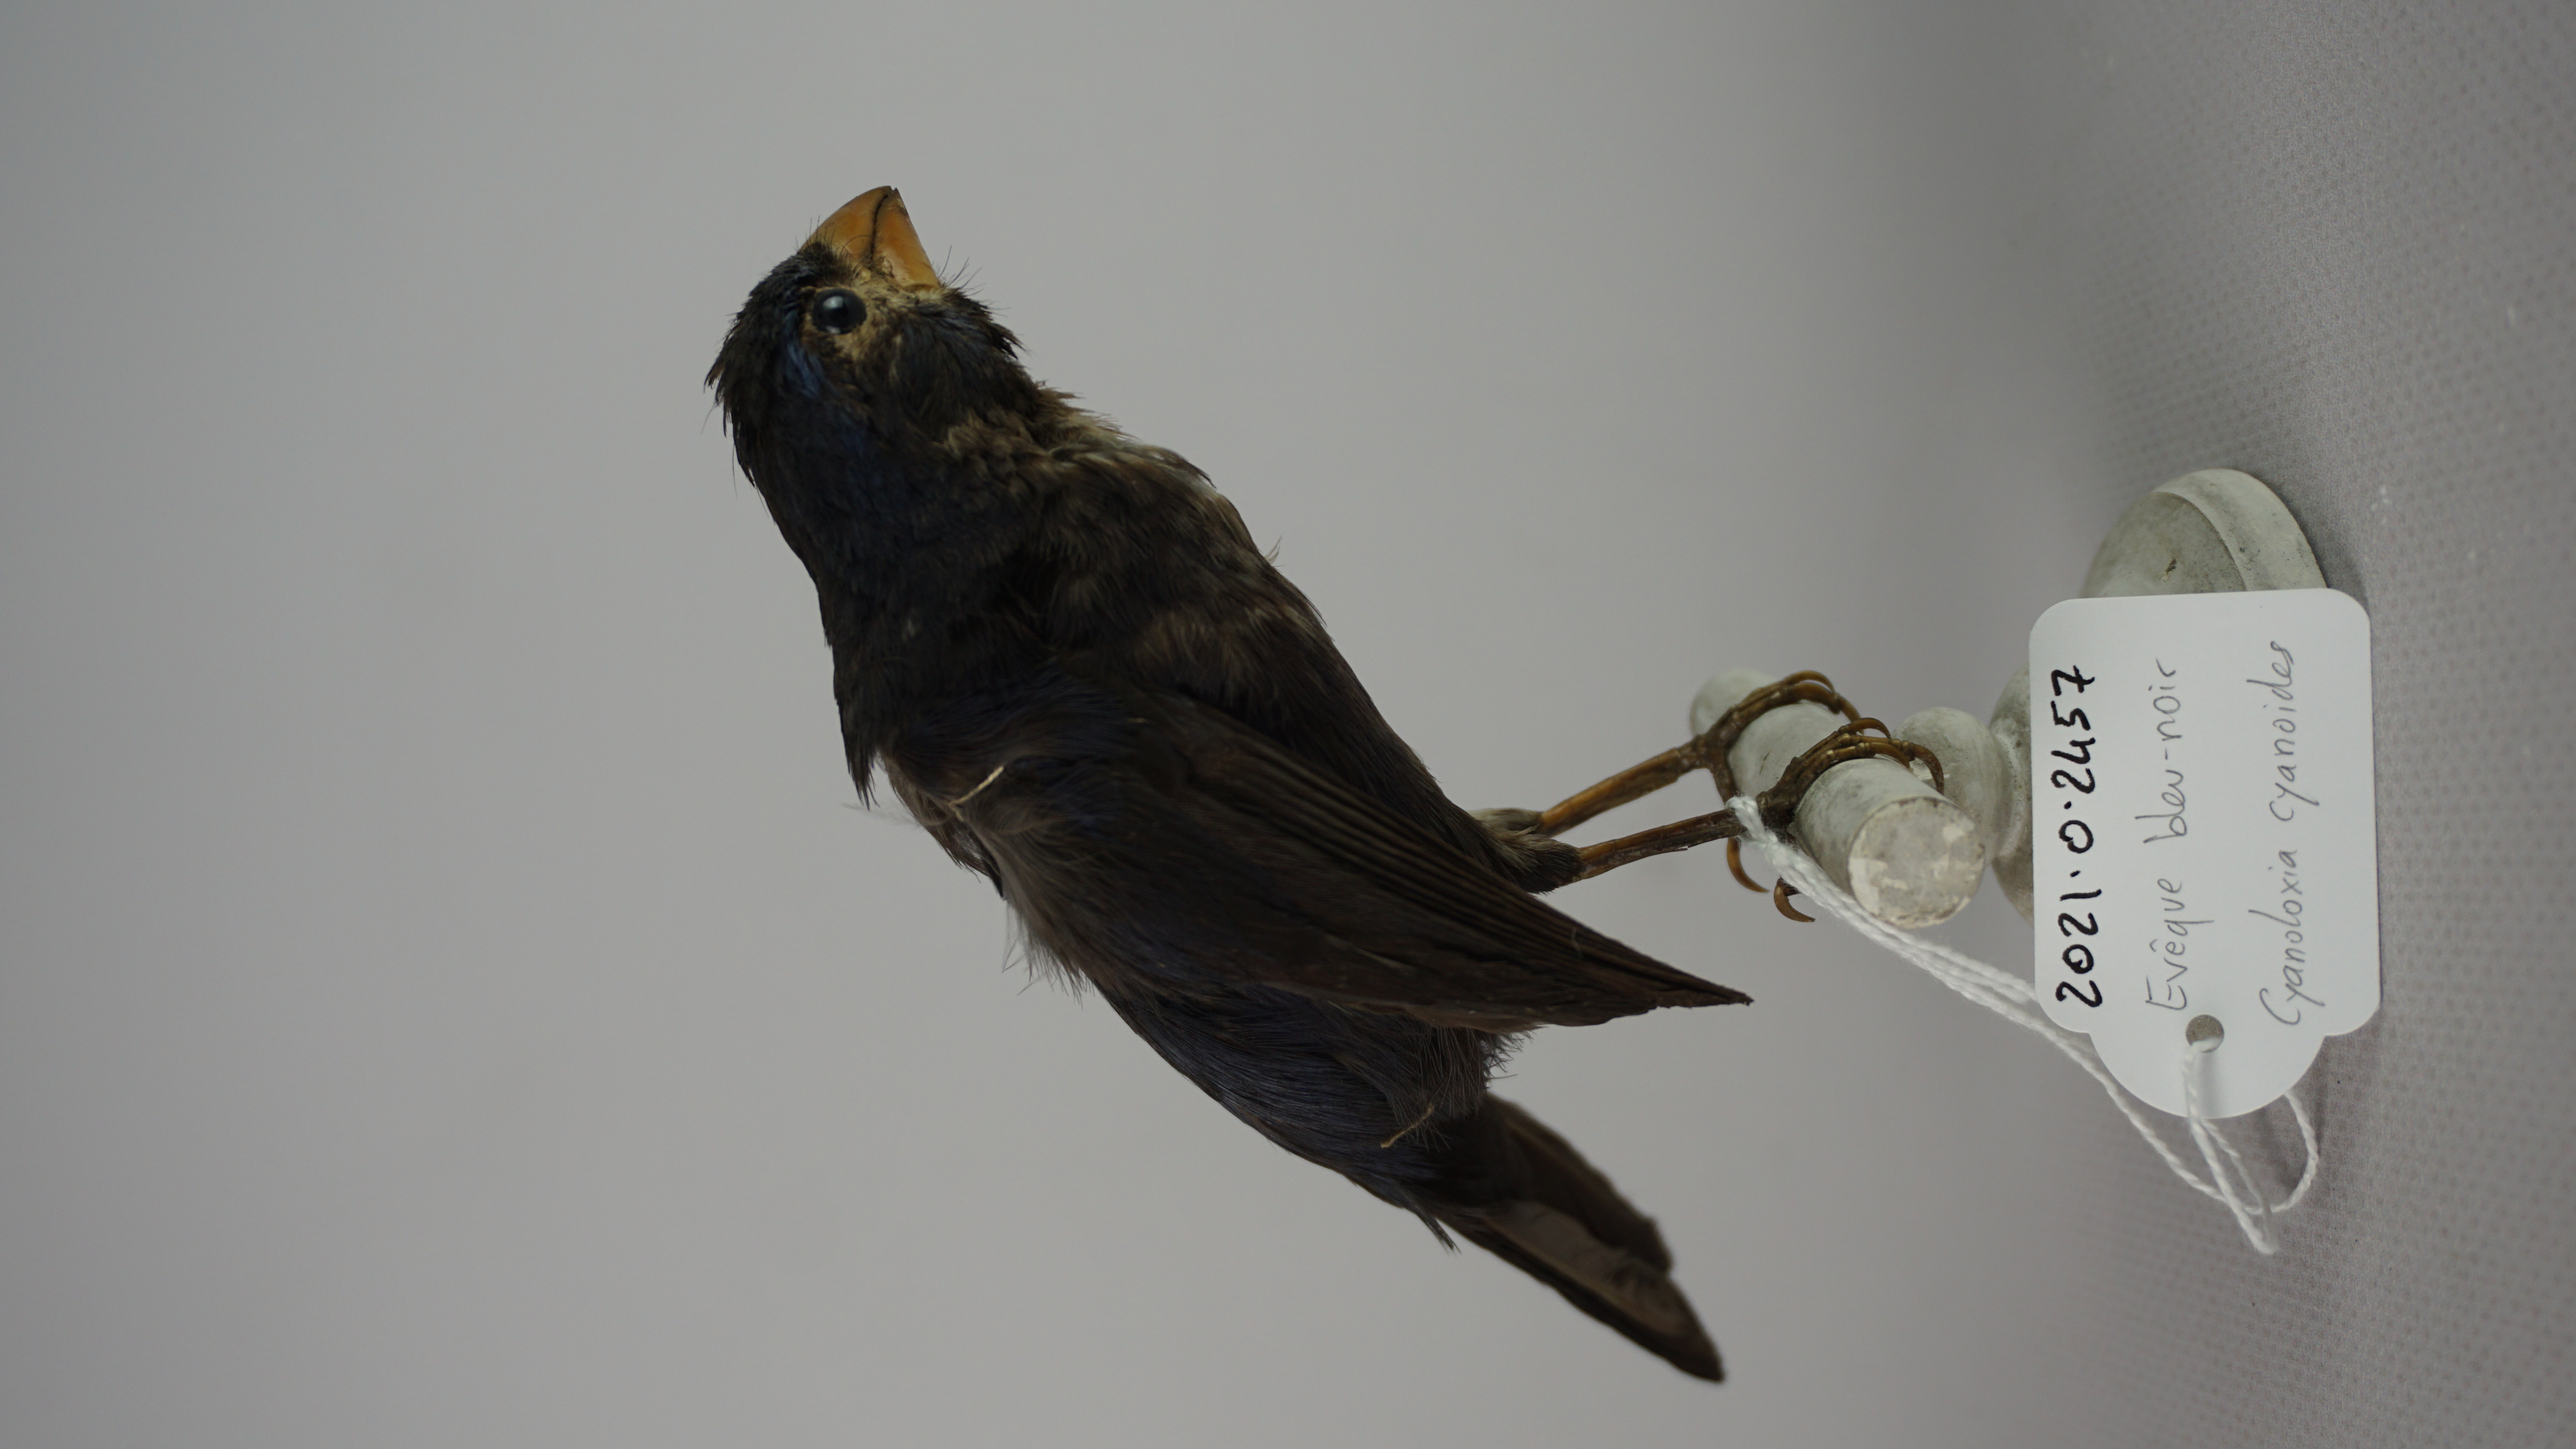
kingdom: Animalia
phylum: Chordata
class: Aves
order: Passeriformes
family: Cardinalidae
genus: Cyanocompsa
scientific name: Cyanocompsa cyanoides
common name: Blue-black grosbeak
